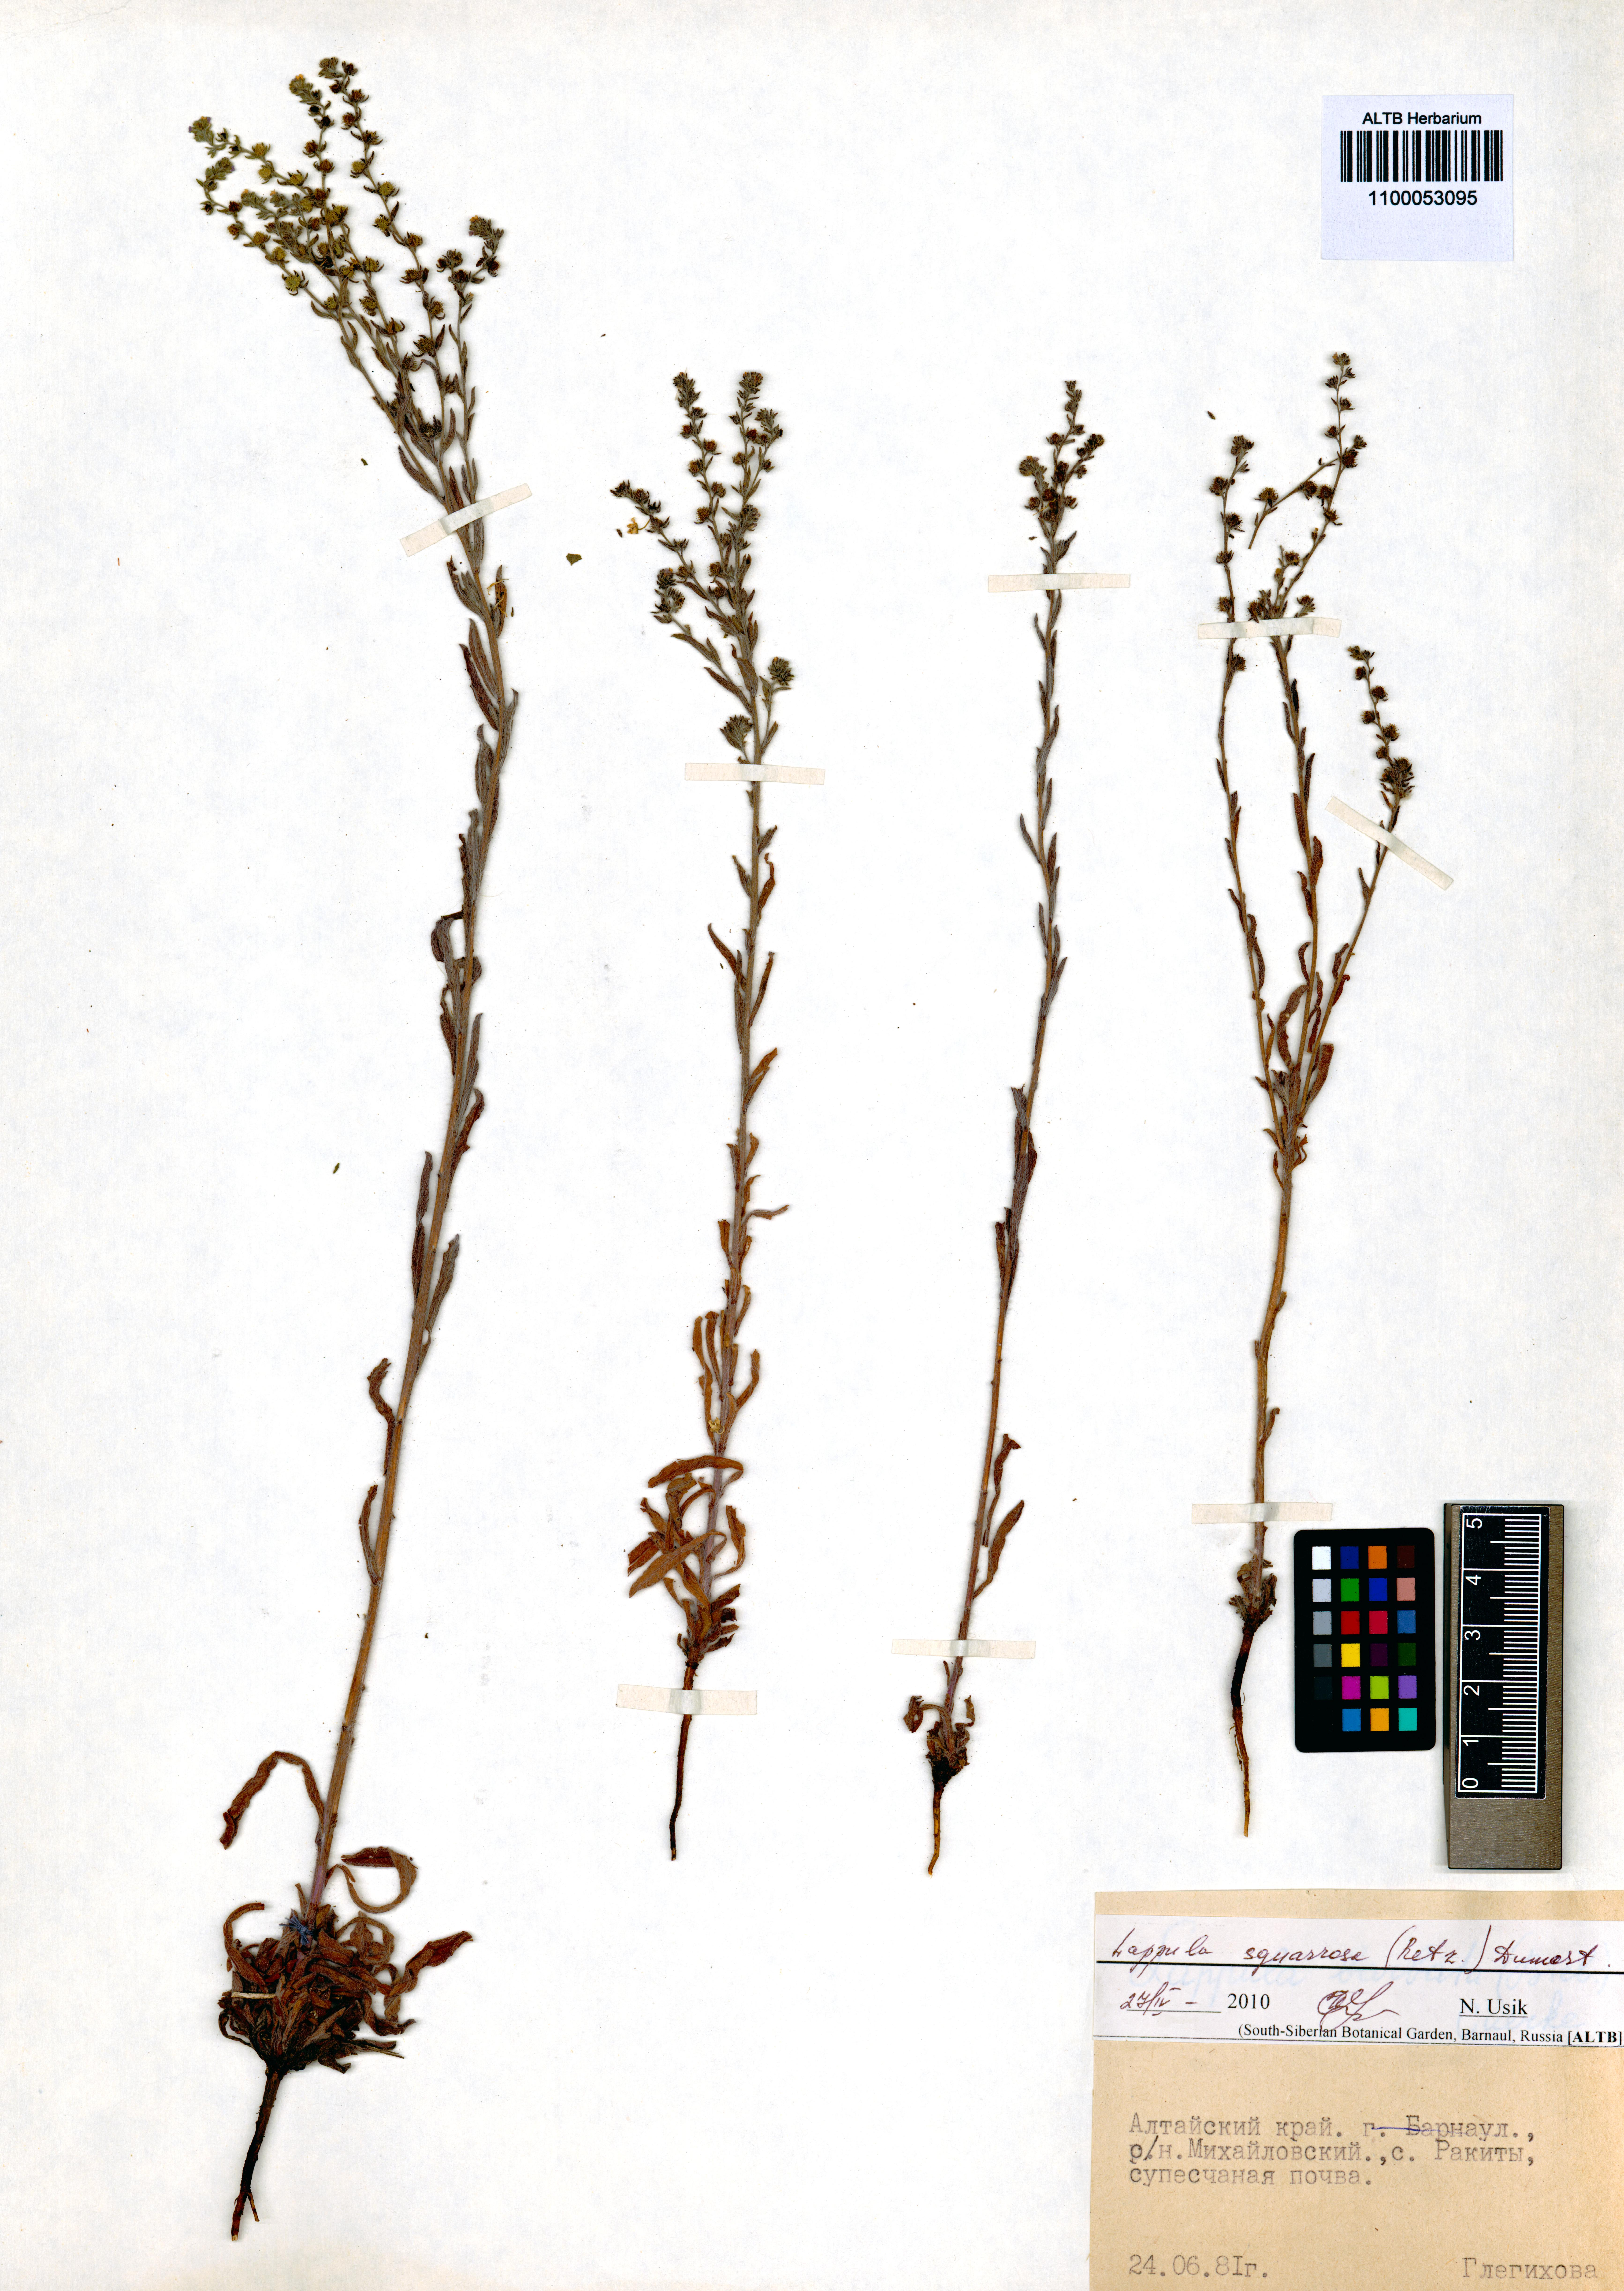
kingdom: Plantae
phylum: Tracheophyta
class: Magnoliopsida
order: Boraginales
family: Boraginaceae
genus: Lappula
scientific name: Lappula squarrosa
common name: European stickseed
